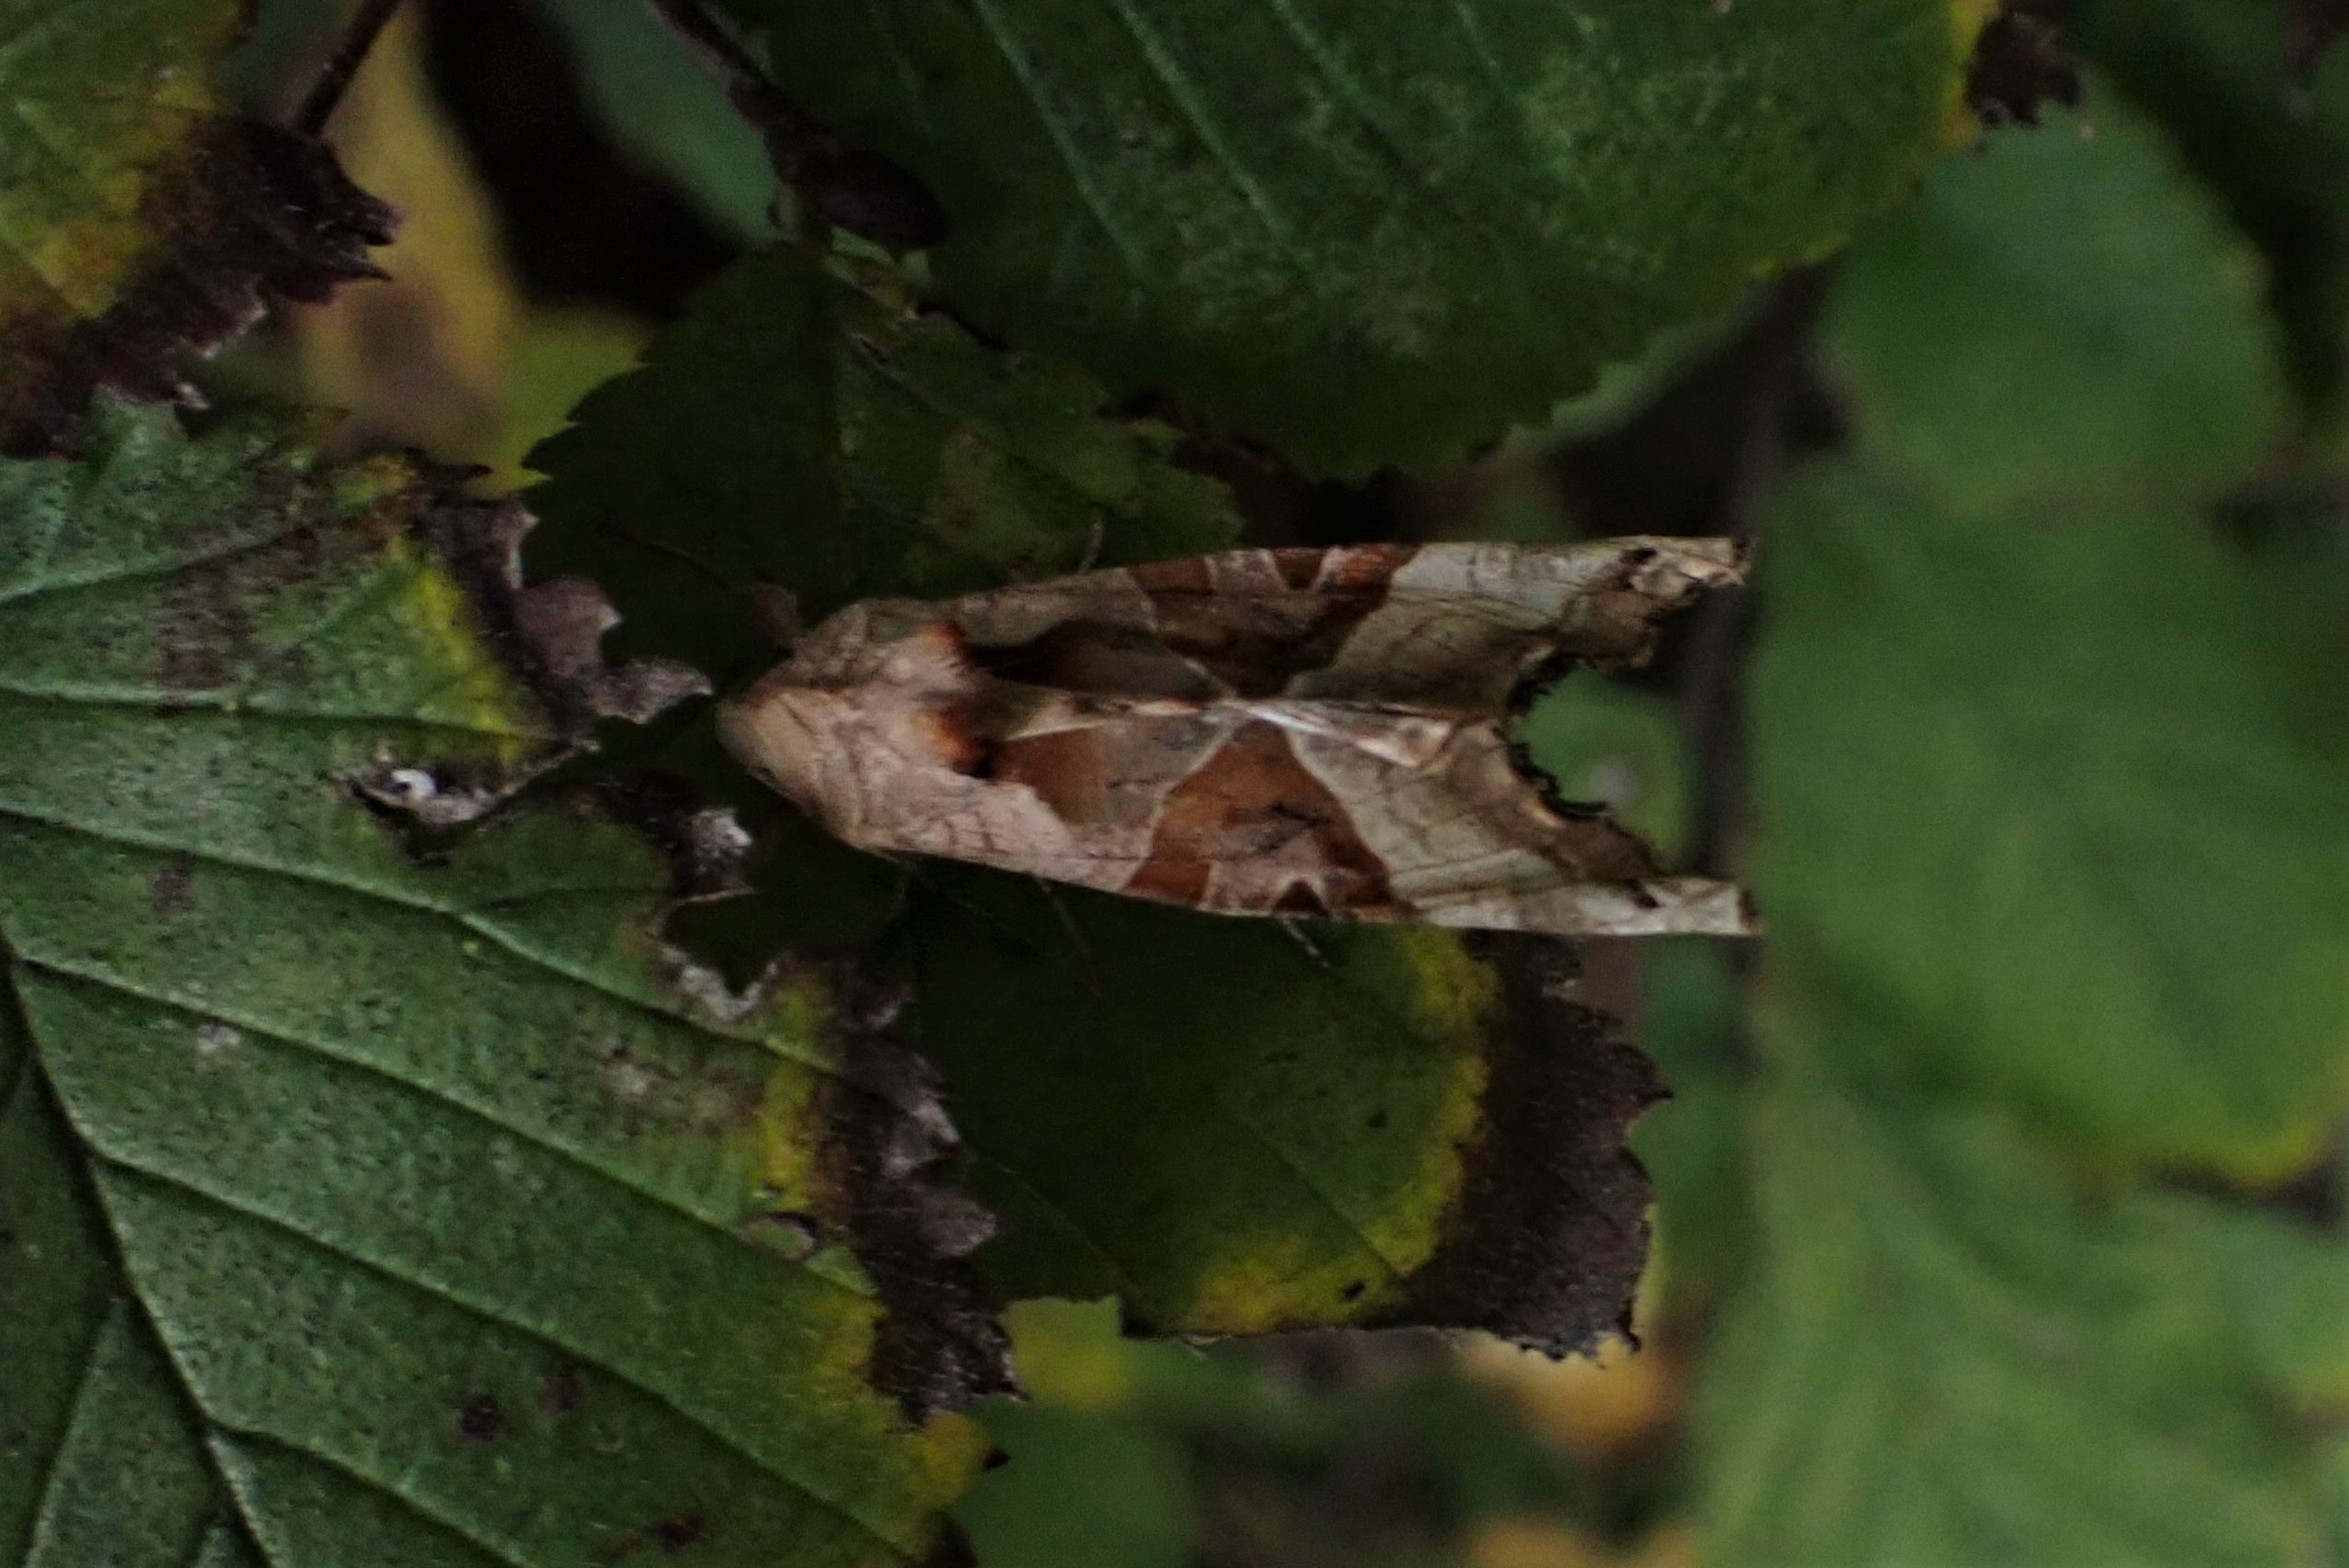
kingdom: Animalia
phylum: Arthropoda
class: Insecta
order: Lepidoptera
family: Noctuidae
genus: Phlogophora
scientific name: Phlogophora meticulosa
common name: Agatugle
